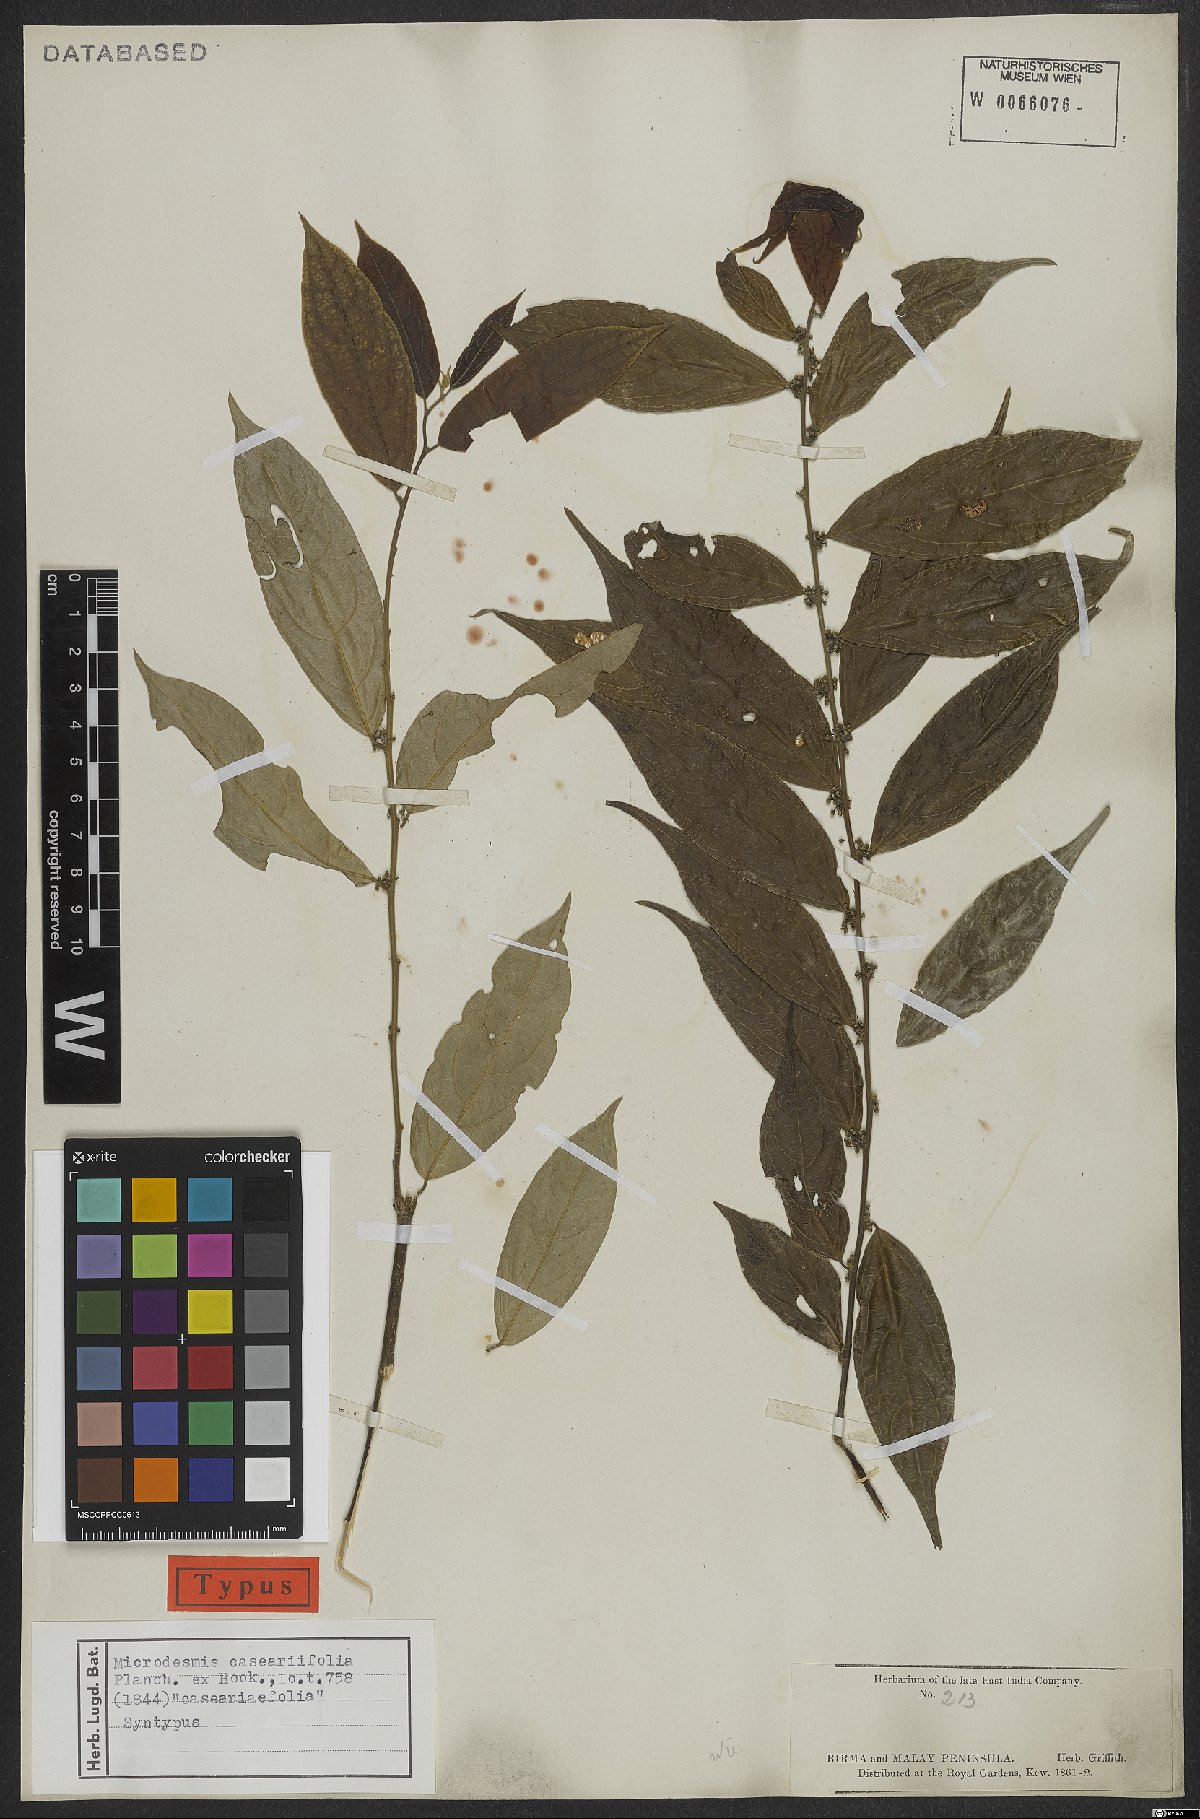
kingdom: Plantae
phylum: Tracheophyta
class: Magnoliopsida
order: Malpighiales
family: Pandaceae
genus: Microdesmis
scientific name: Microdesmis caseariifolia
